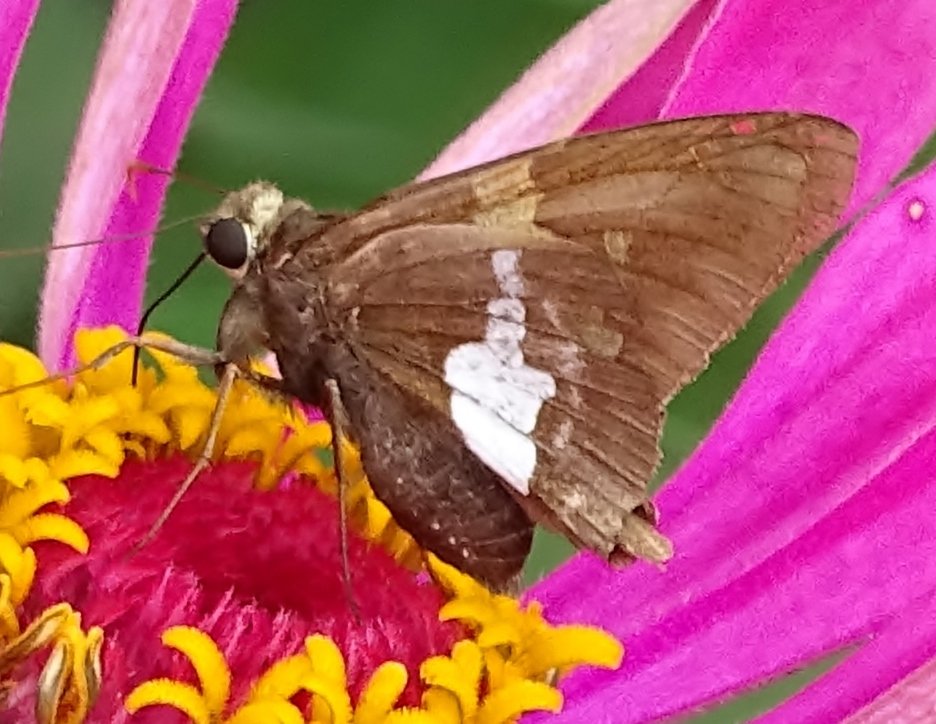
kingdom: Animalia
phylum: Arthropoda
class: Insecta
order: Lepidoptera
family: Hesperiidae
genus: Epargyreus
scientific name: Epargyreus clarus
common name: Silver-spotted Skipper
